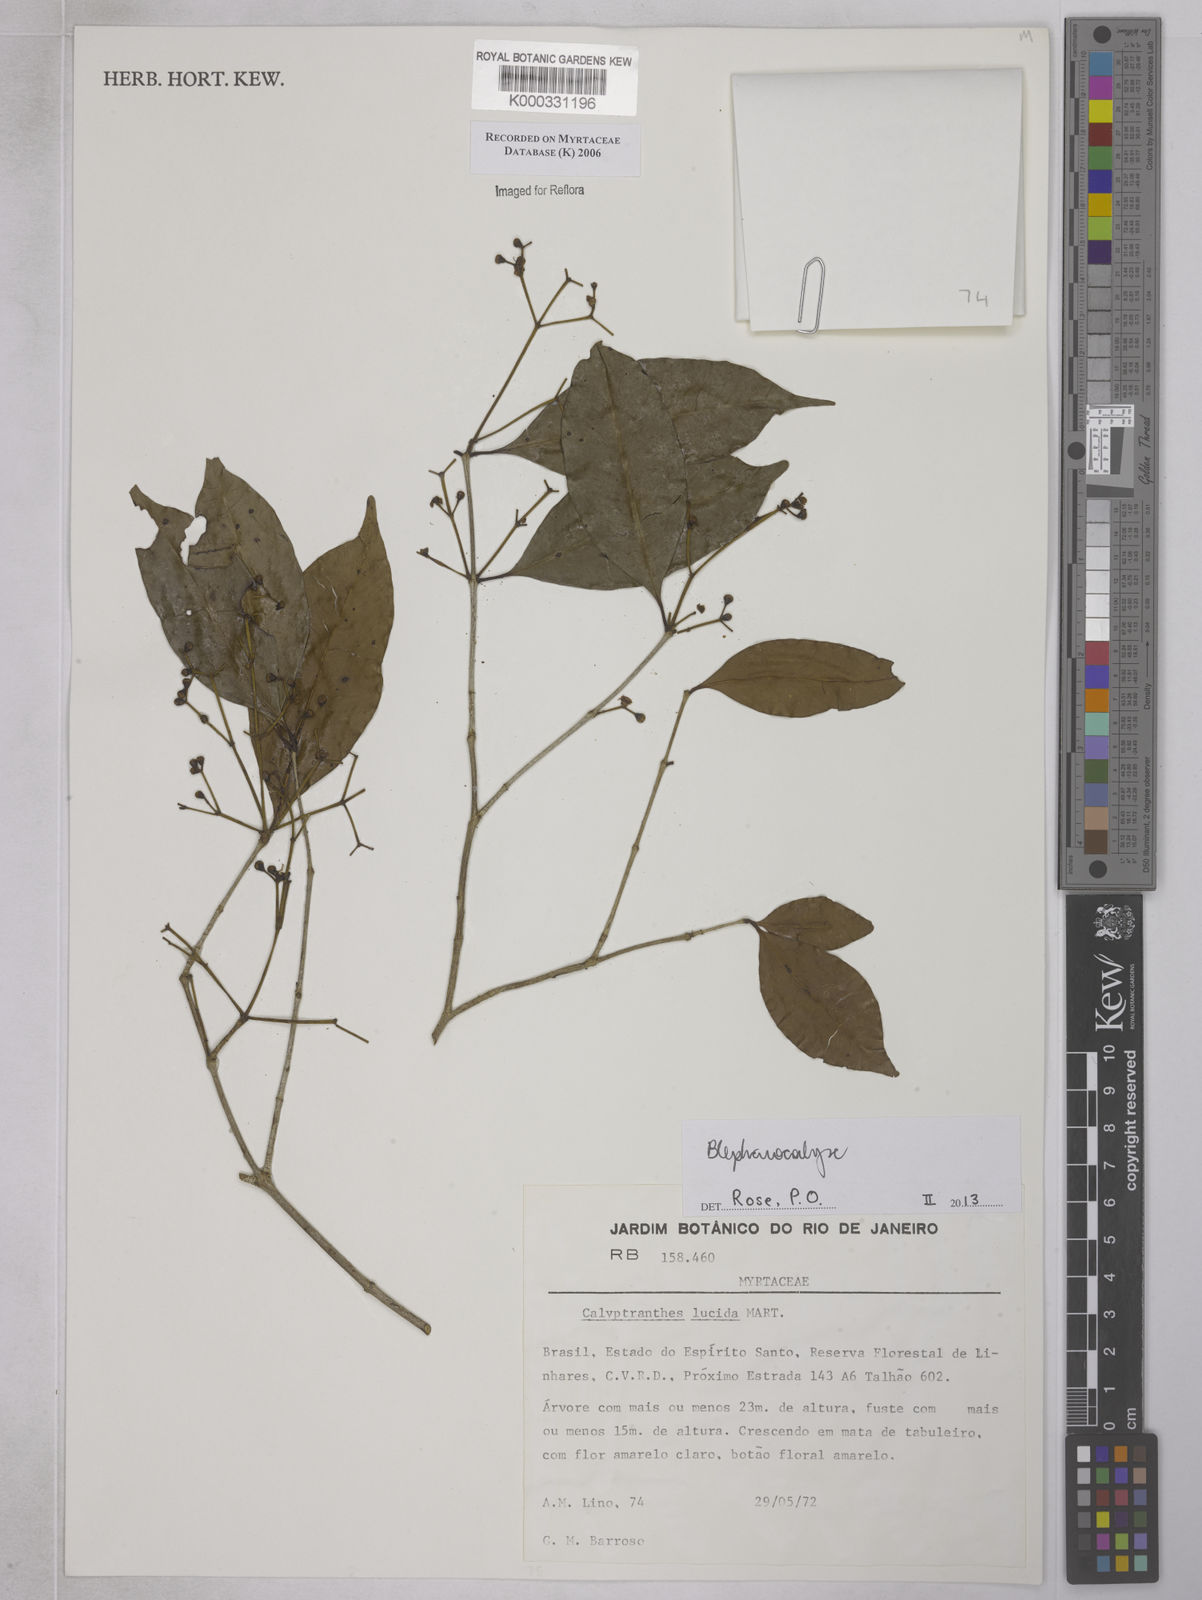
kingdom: Plantae
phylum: Tracheophyta
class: Magnoliopsida
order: Myrtales
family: Myrtaceae
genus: Myrcia
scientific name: Myrcia neolucida
